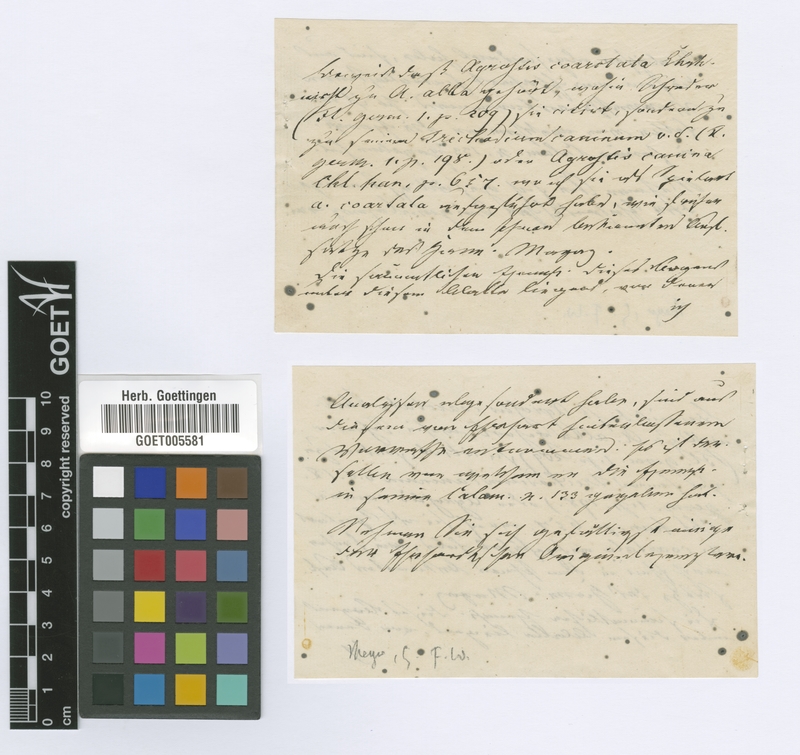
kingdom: Plantae
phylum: Tracheophyta
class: Liliopsida
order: Poales
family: Poaceae
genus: Agrostis
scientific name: Agrostis vinealis
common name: Brown bent
